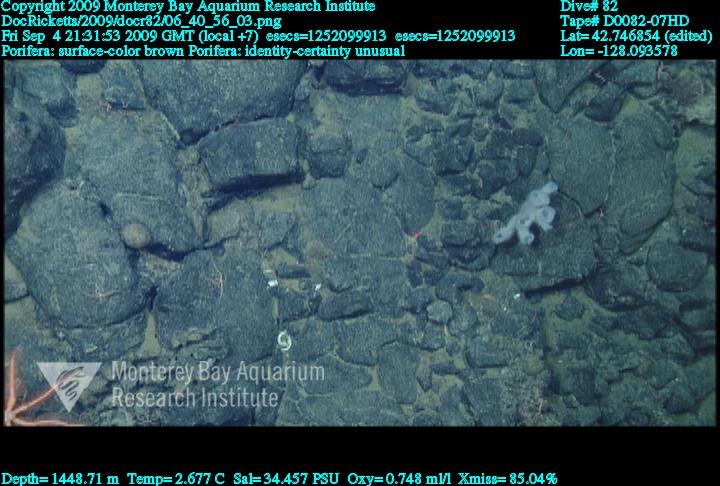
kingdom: Animalia
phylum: Porifera
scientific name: Porifera
